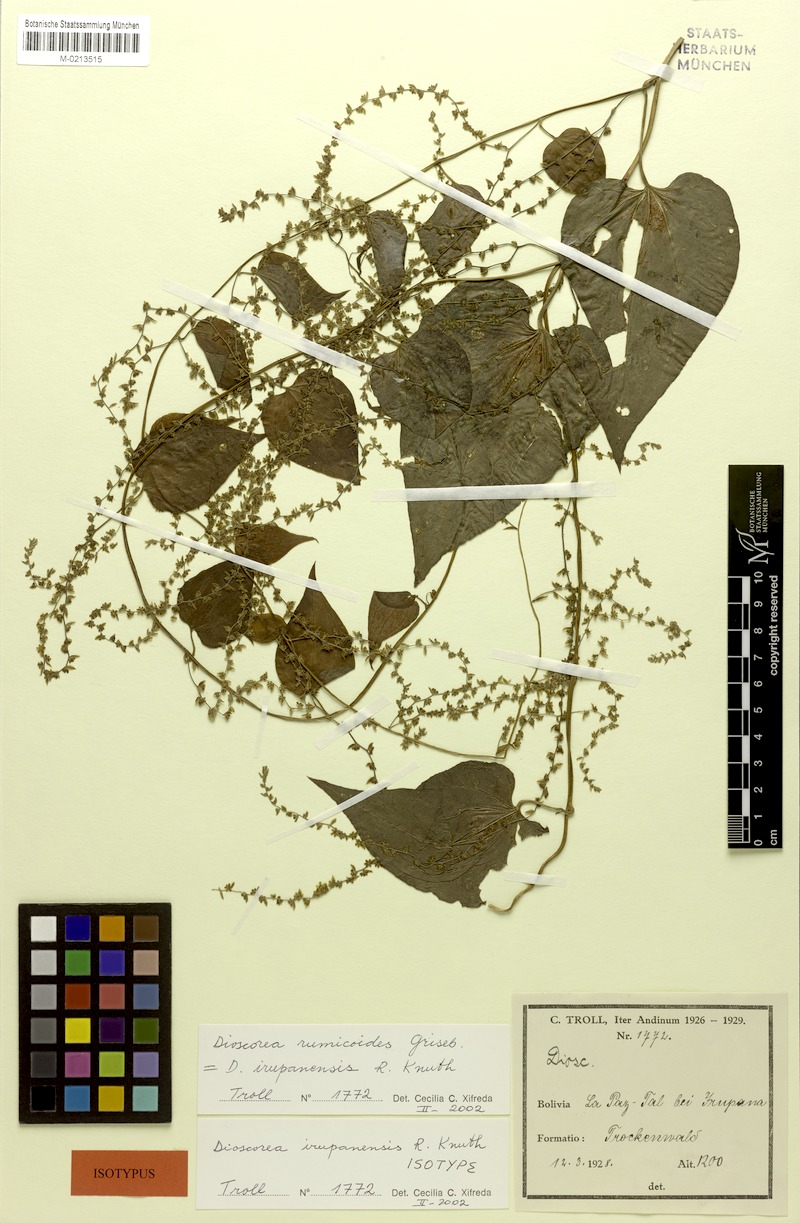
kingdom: Plantae
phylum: Tracheophyta
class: Liliopsida
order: Dioscoreales
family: Dioscoreaceae
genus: Dioscorea
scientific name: Dioscorea irupanensis
